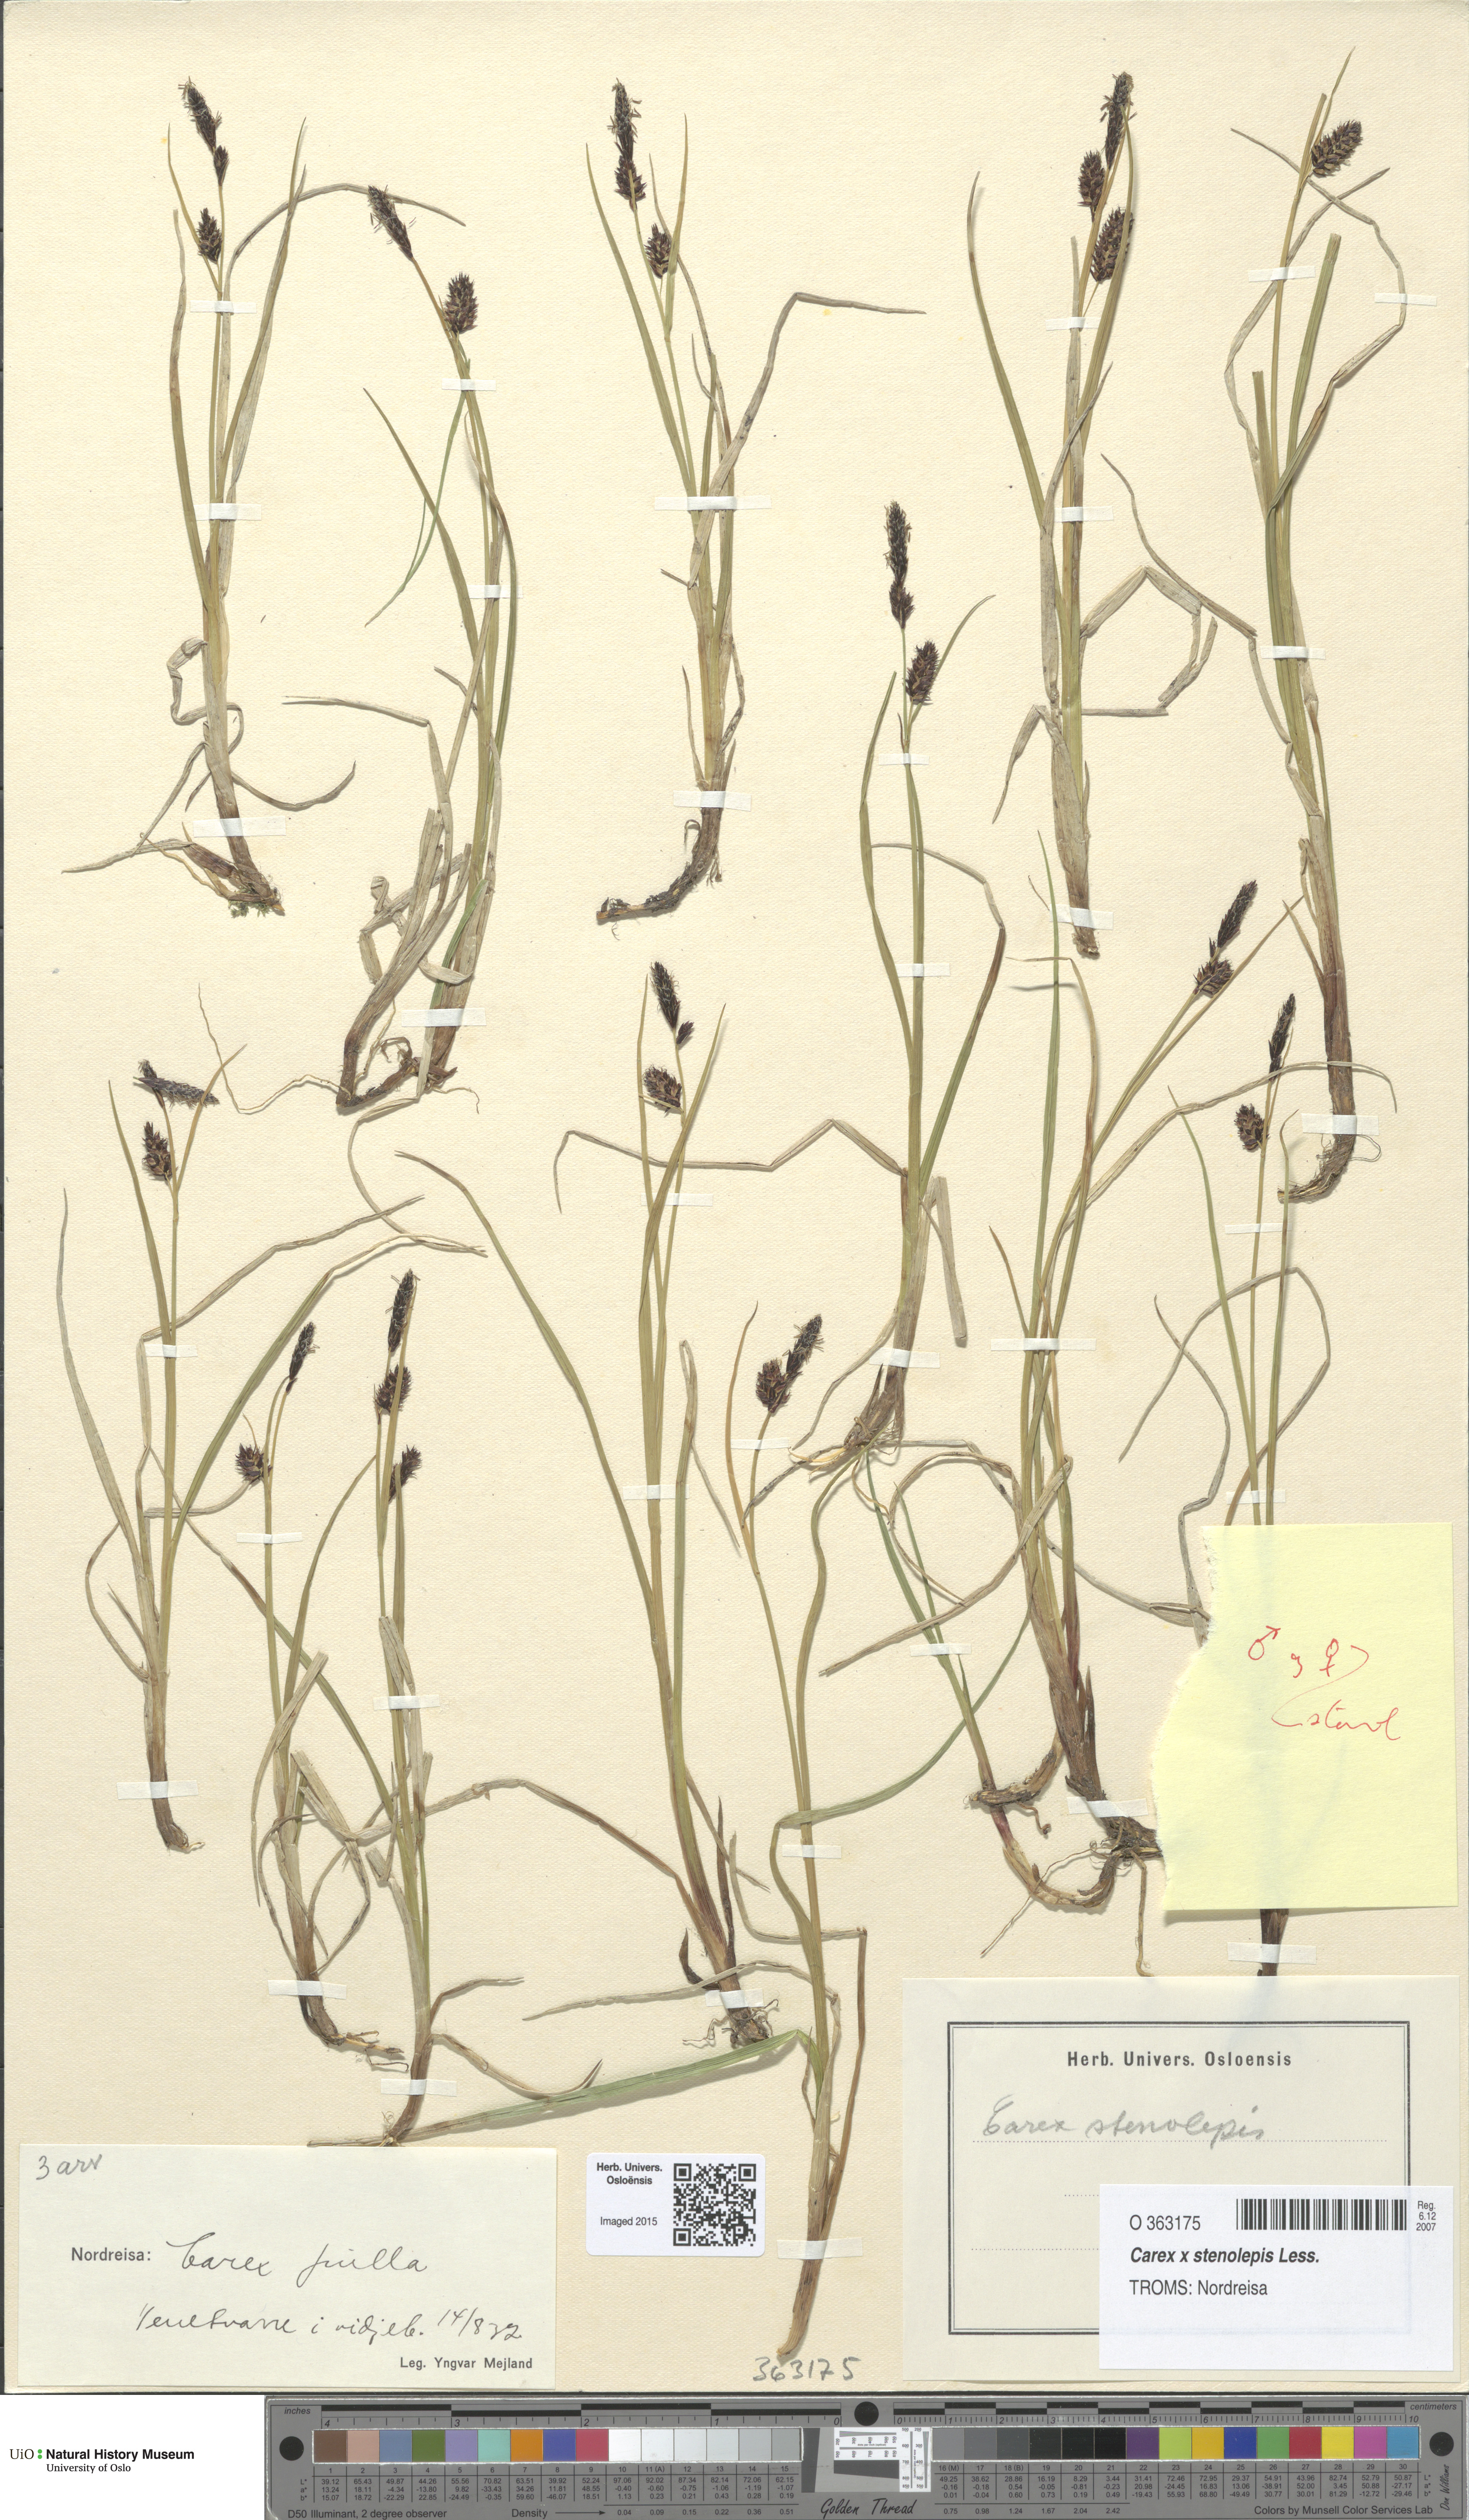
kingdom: Plantae
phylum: Tracheophyta
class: Liliopsida
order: Poales
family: Cyperaceae
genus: Carex
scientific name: Carex grahamii
